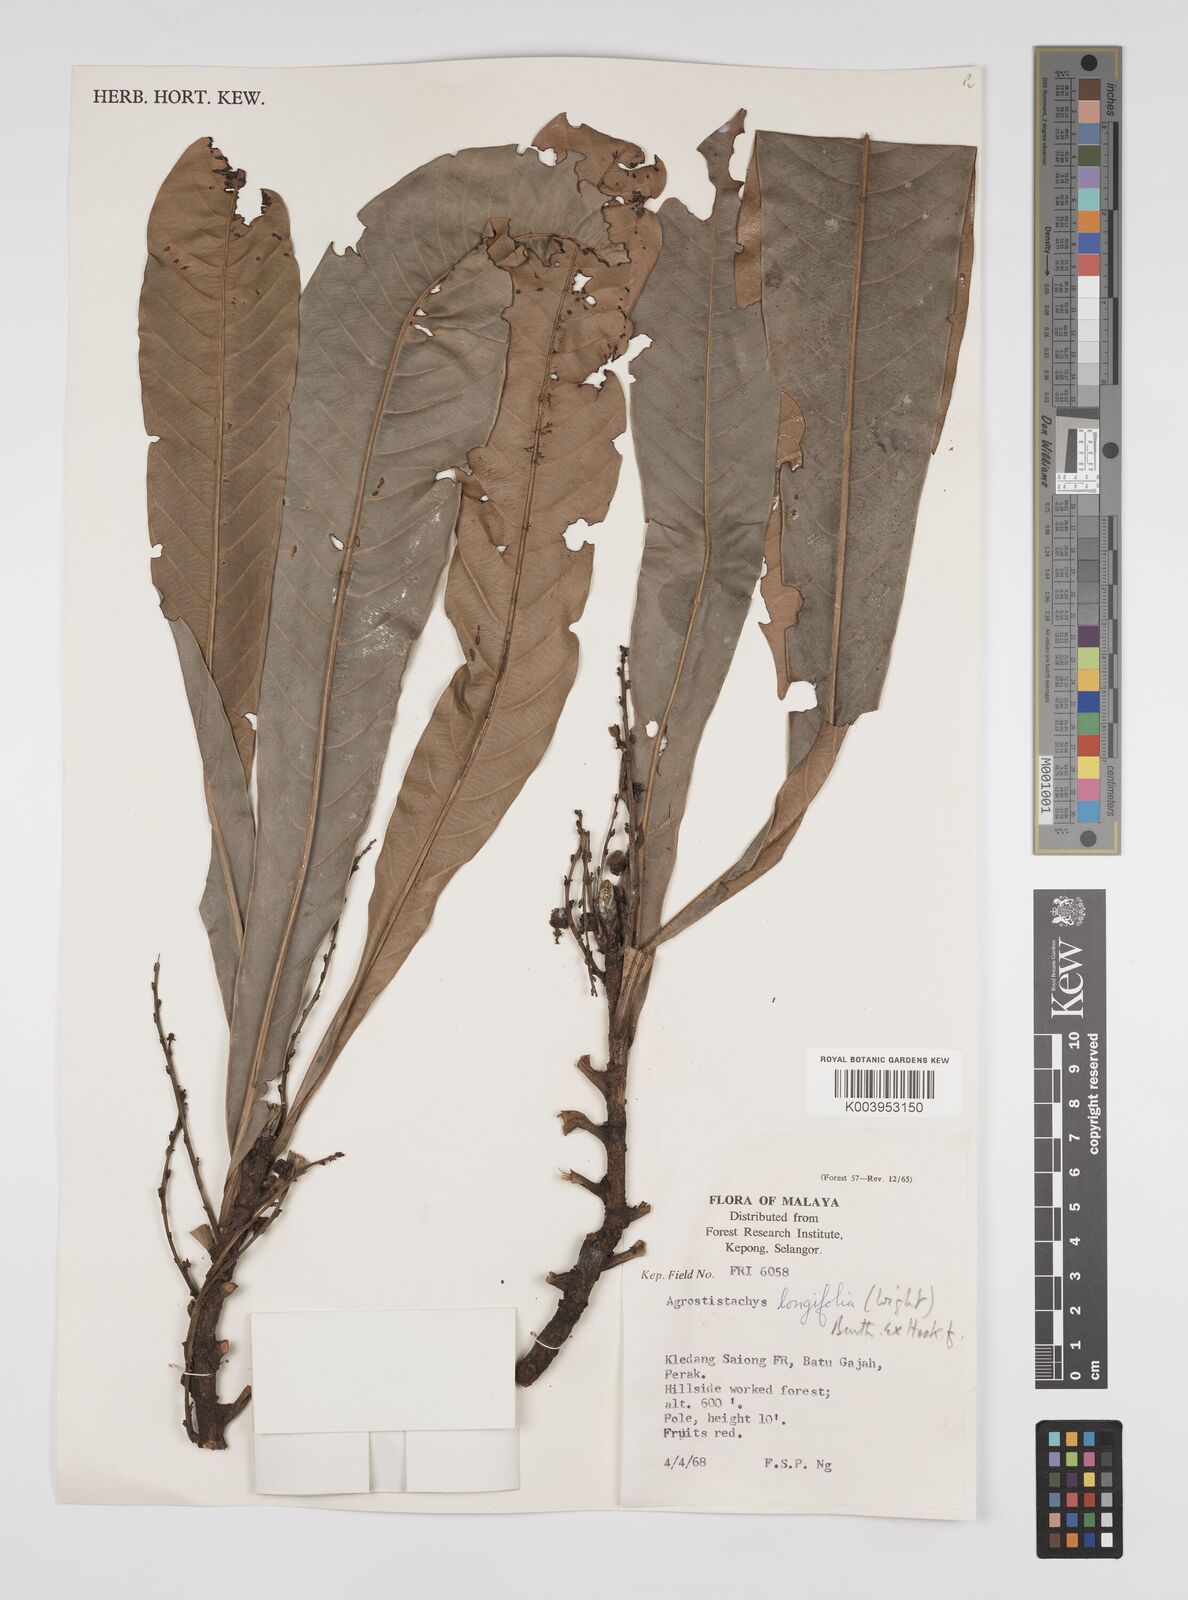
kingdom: Plantae
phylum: Tracheophyta
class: Magnoliopsida
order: Malpighiales
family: Euphorbiaceae
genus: Agrostistachys
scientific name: Agrostistachys borneensis
